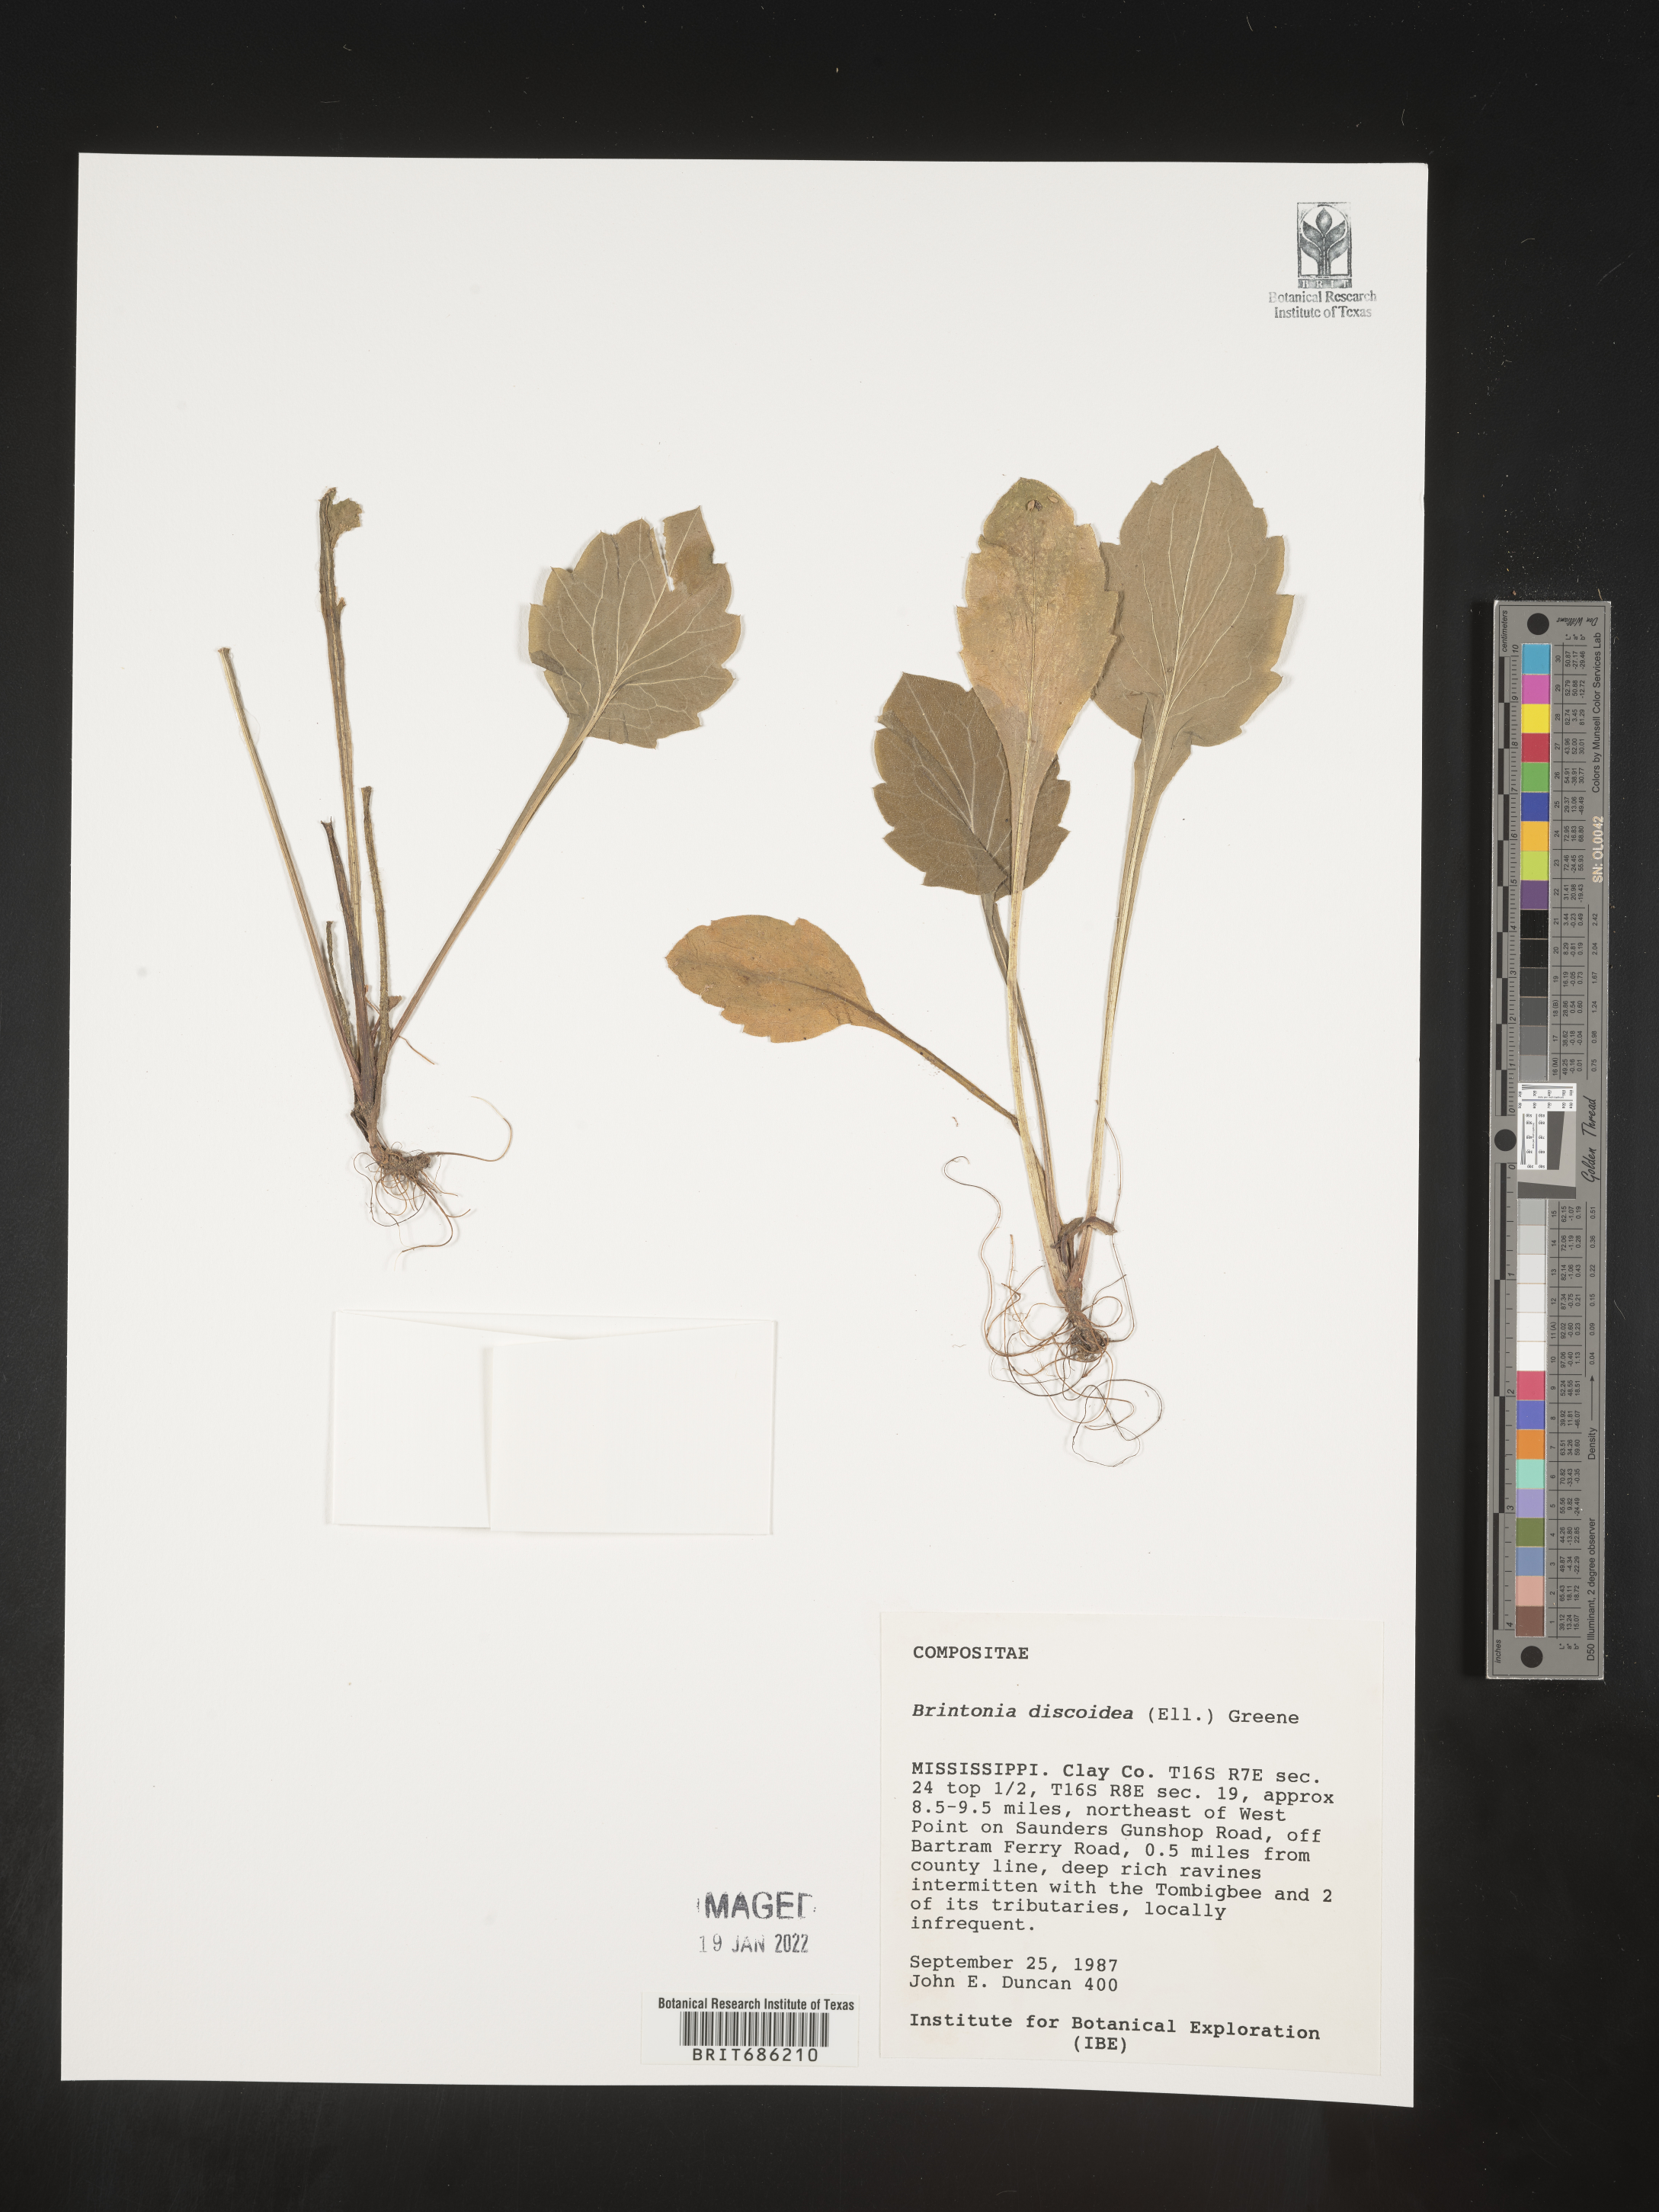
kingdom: Plantae
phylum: Tracheophyta
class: Magnoliopsida
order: Asterales
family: Asteraceae
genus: Solidago
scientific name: Solidago discoidea
